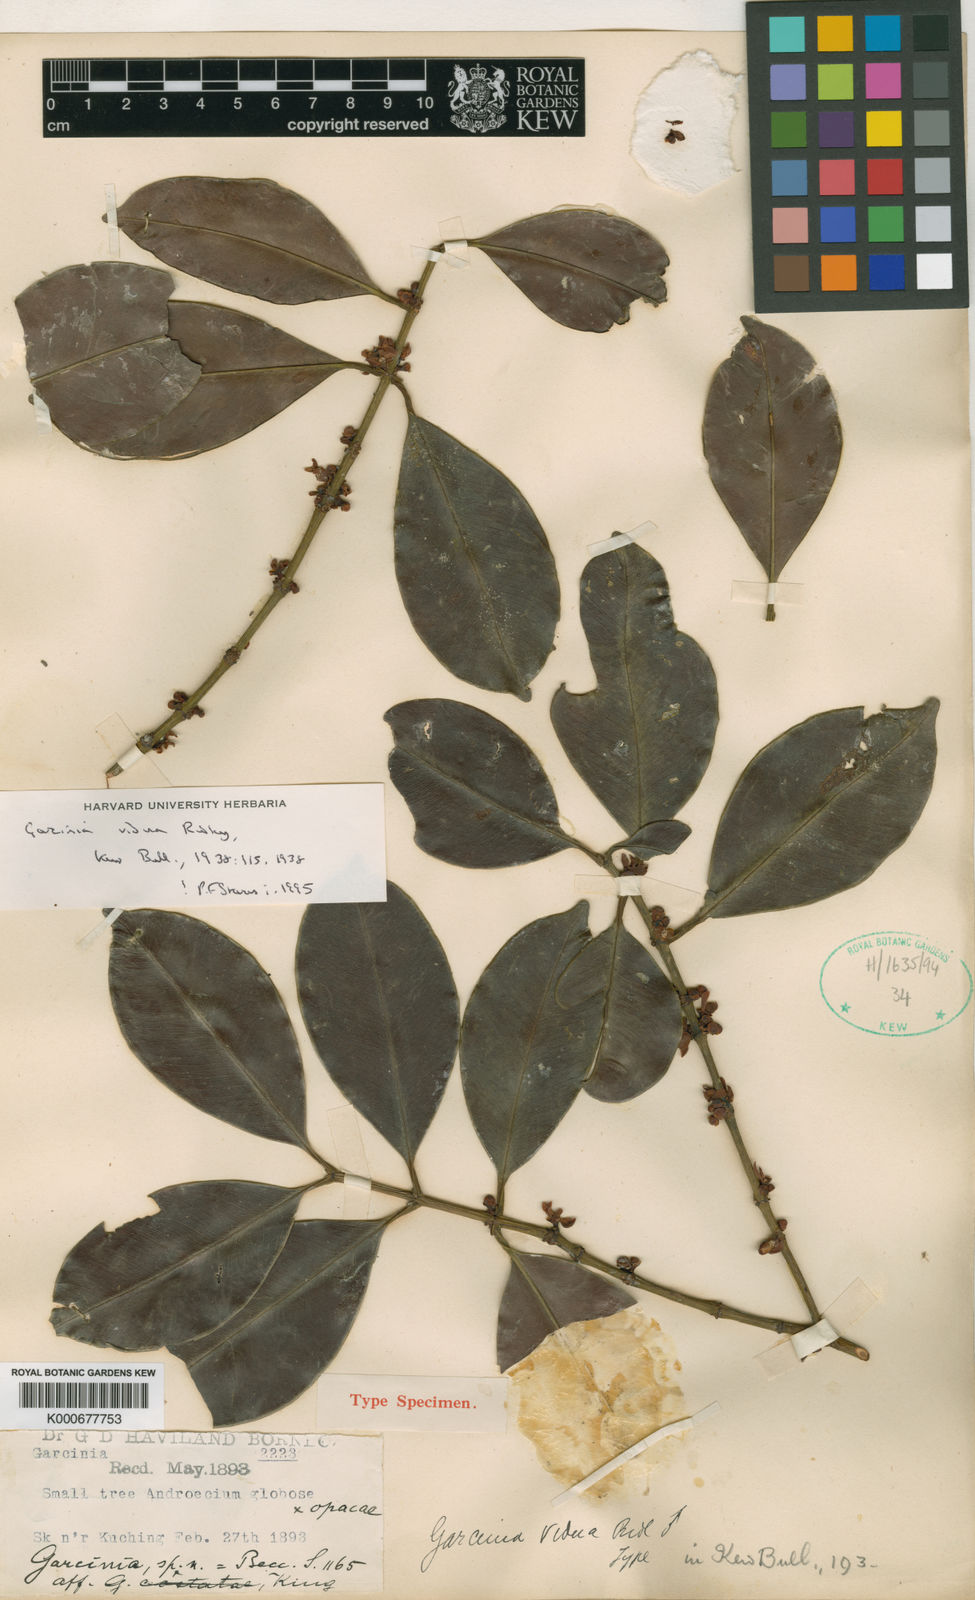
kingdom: Plantae
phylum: Tracheophyta
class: Magnoliopsida
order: Malpighiales
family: Clusiaceae
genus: Garcinia
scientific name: Garcinia vidua
